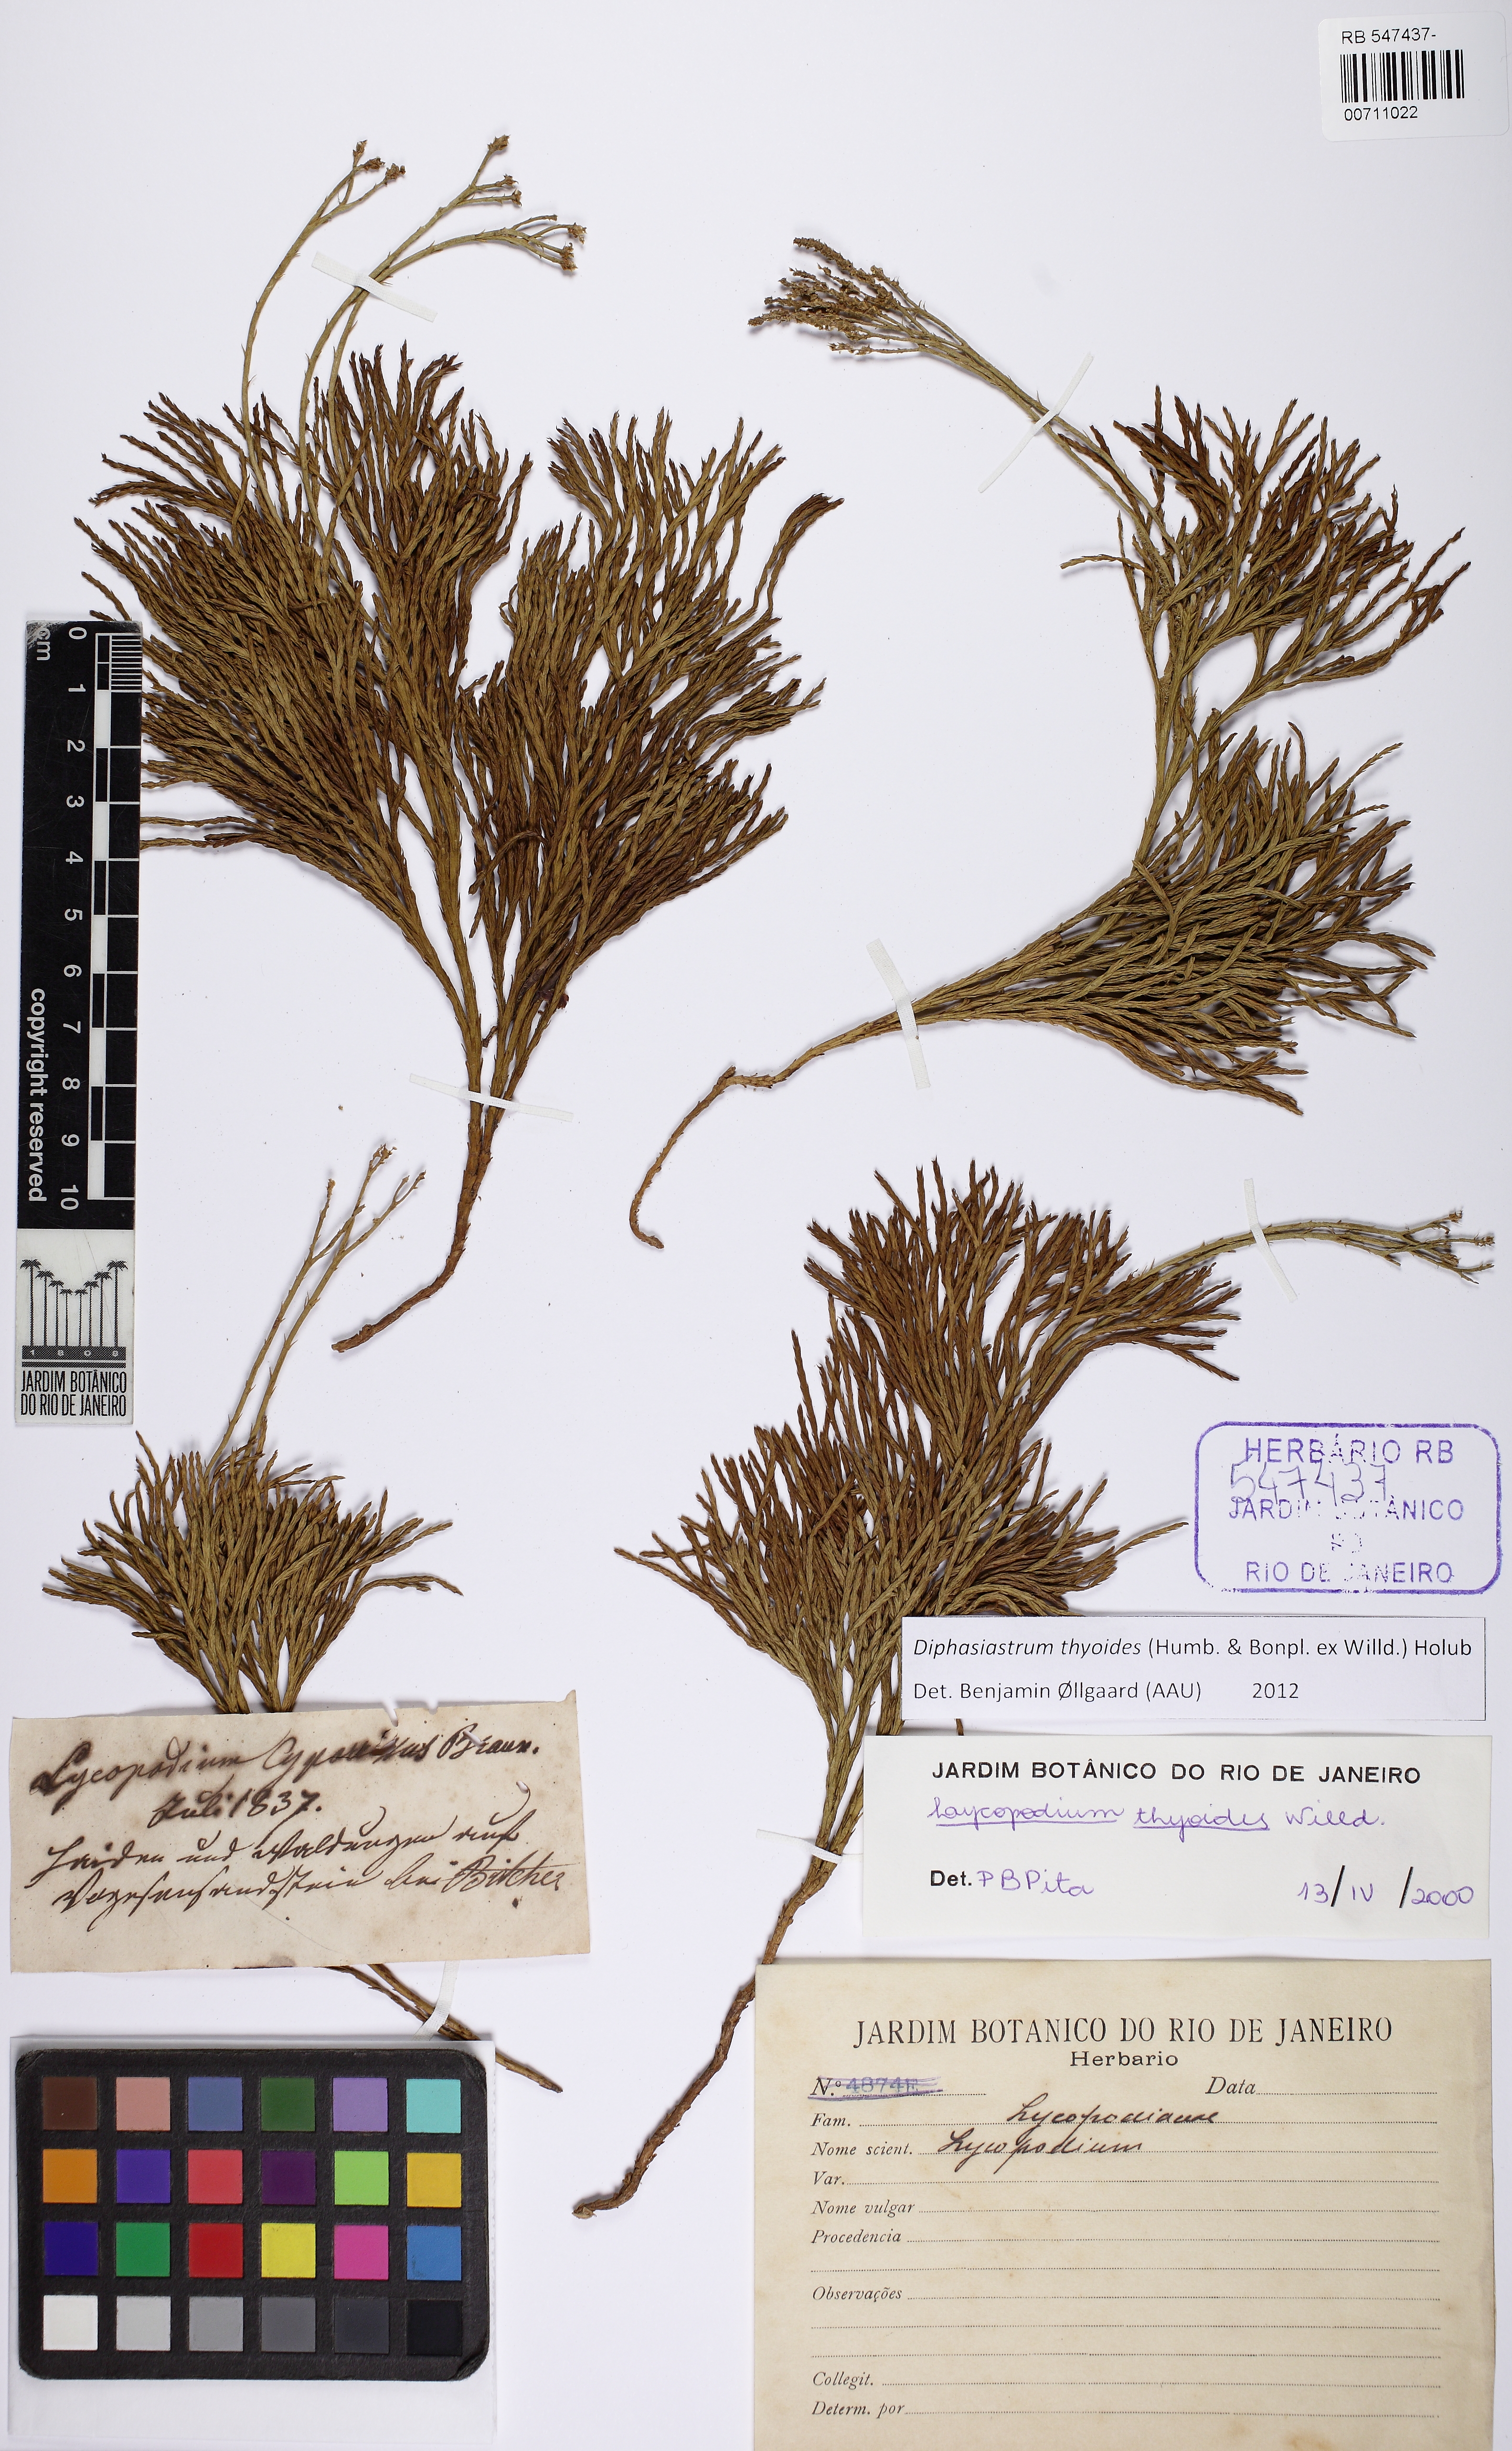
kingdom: Plantae
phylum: Tracheophyta
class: Lycopodiopsida
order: Lycopodiales
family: Lycopodiaceae
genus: Diphasiastrum
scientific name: Diphasiastrum thyoides
